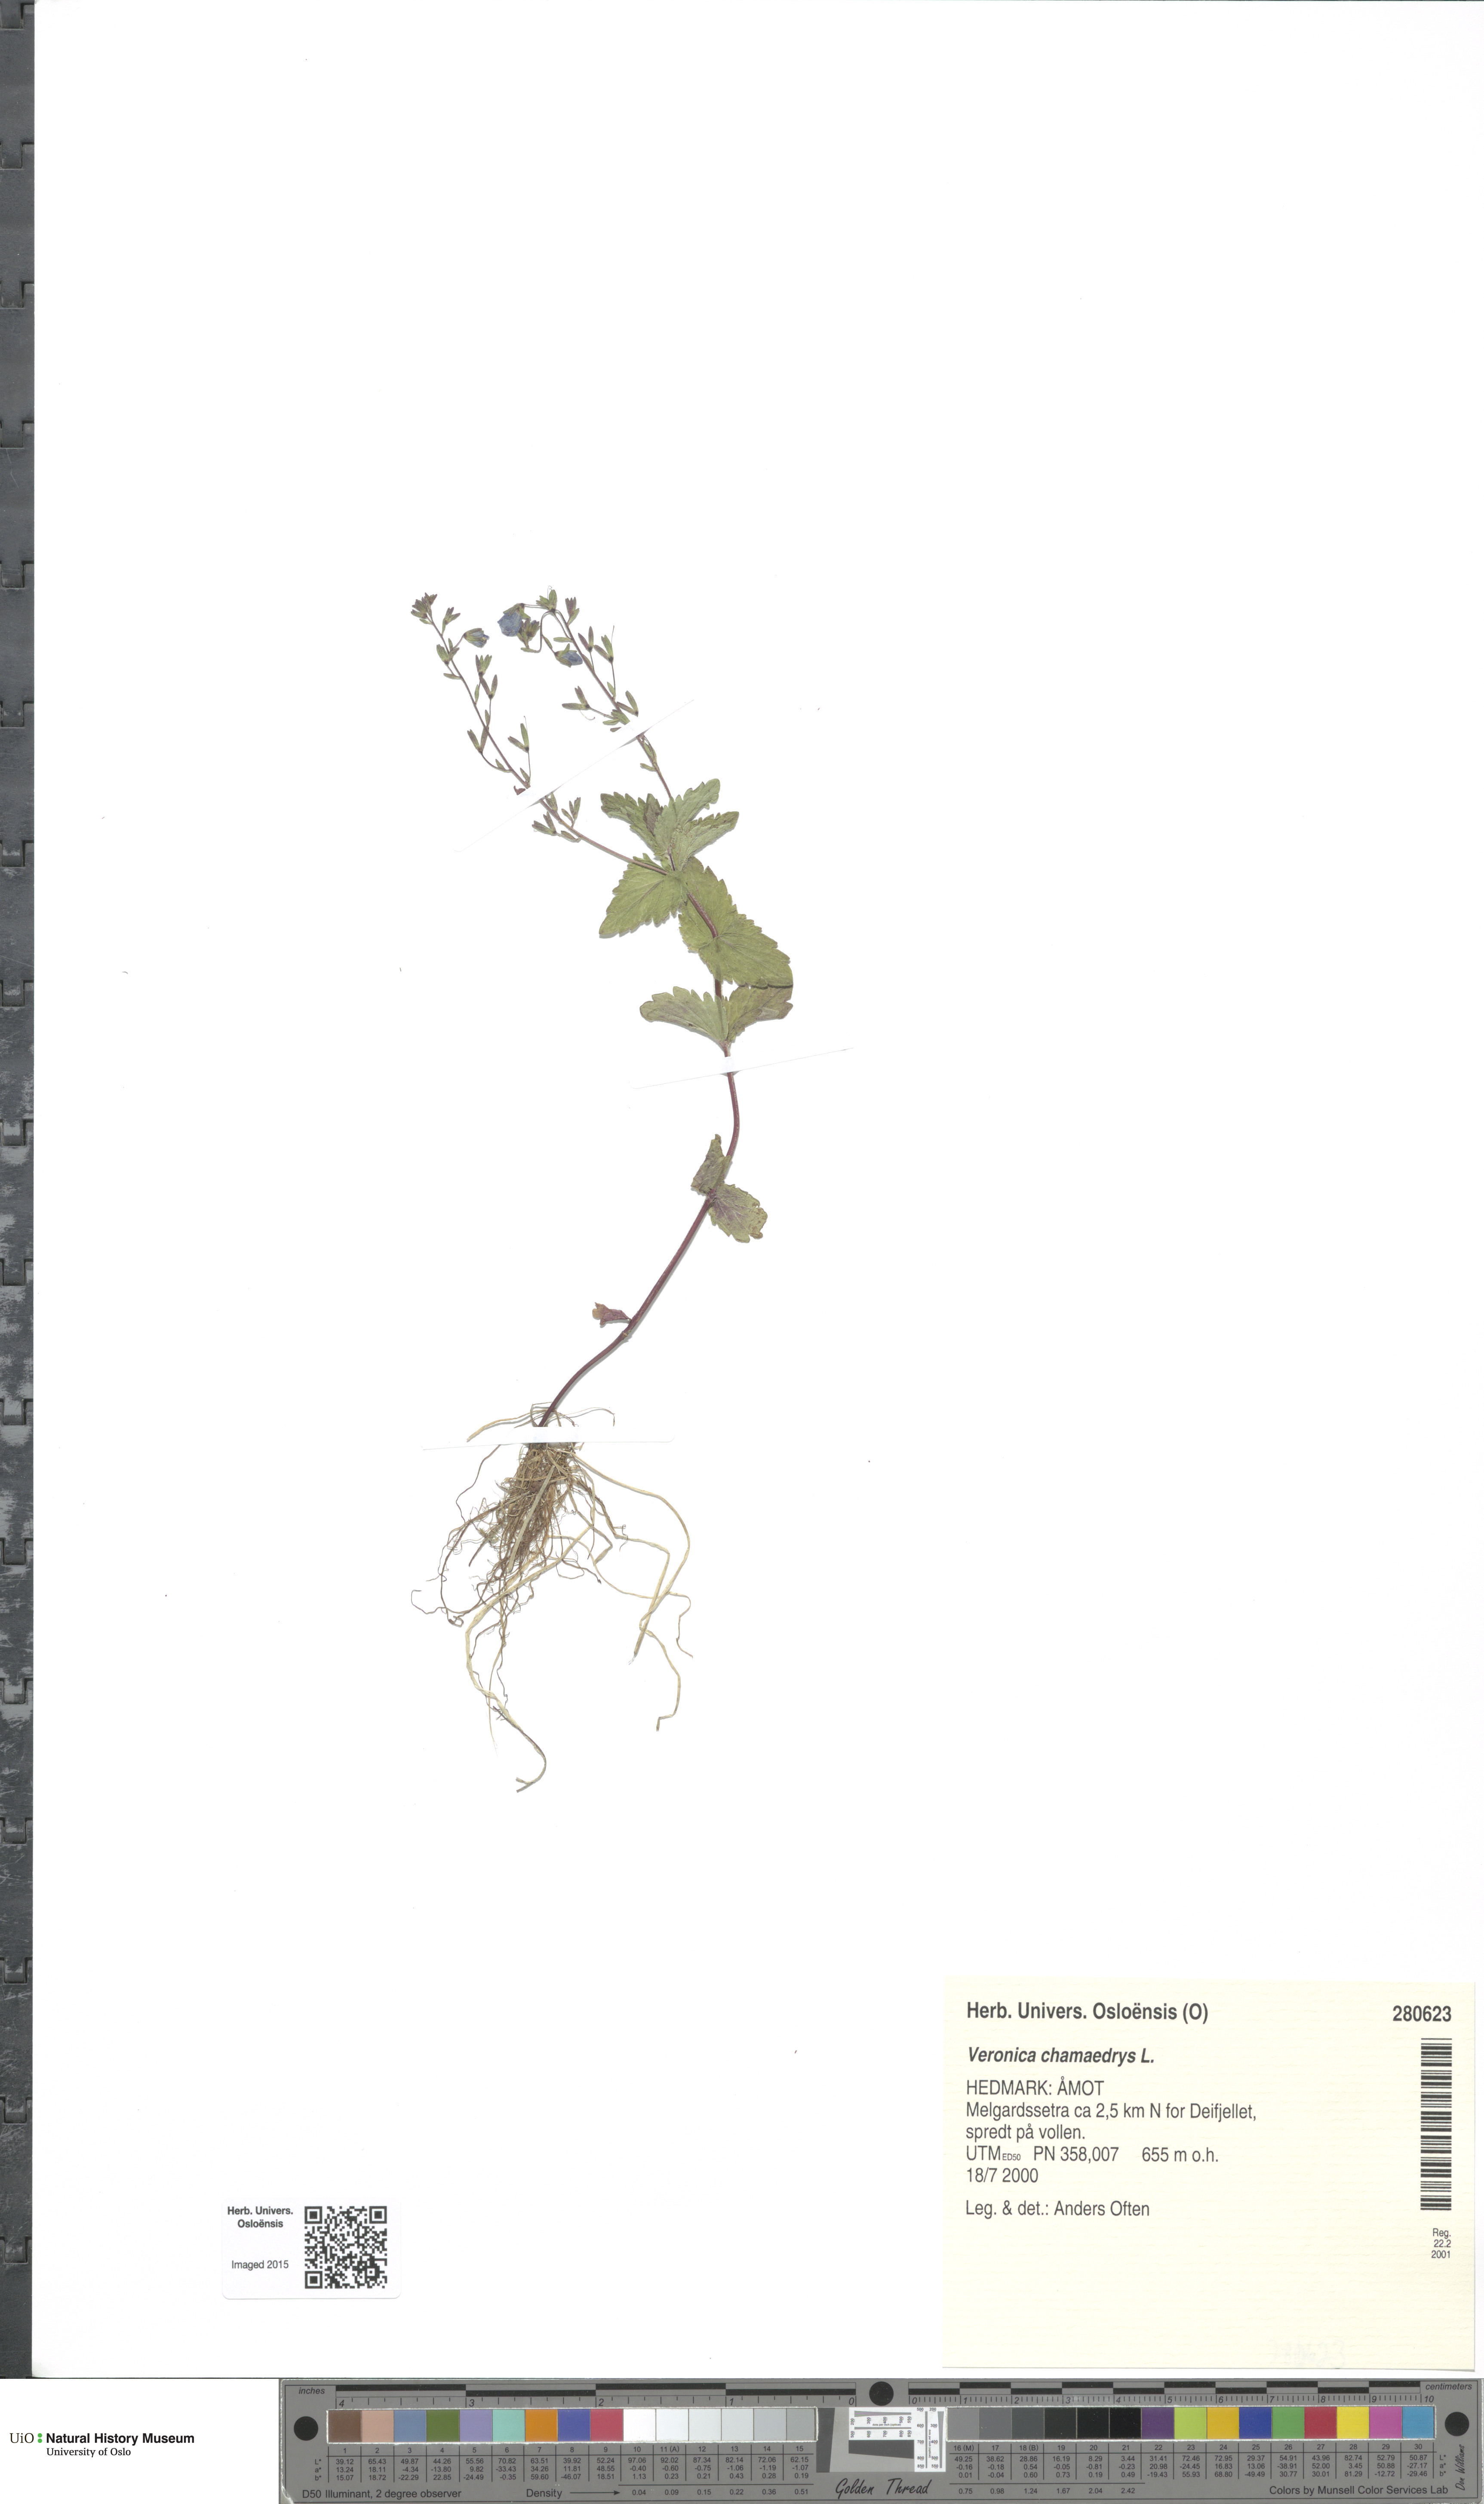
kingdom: Plantae
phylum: Tracheophyta
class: Magnoliopsida
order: Lamiales
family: Plantaginaceae
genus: Veronica
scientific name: Veronica chamaedrys
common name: Germander speedwell
